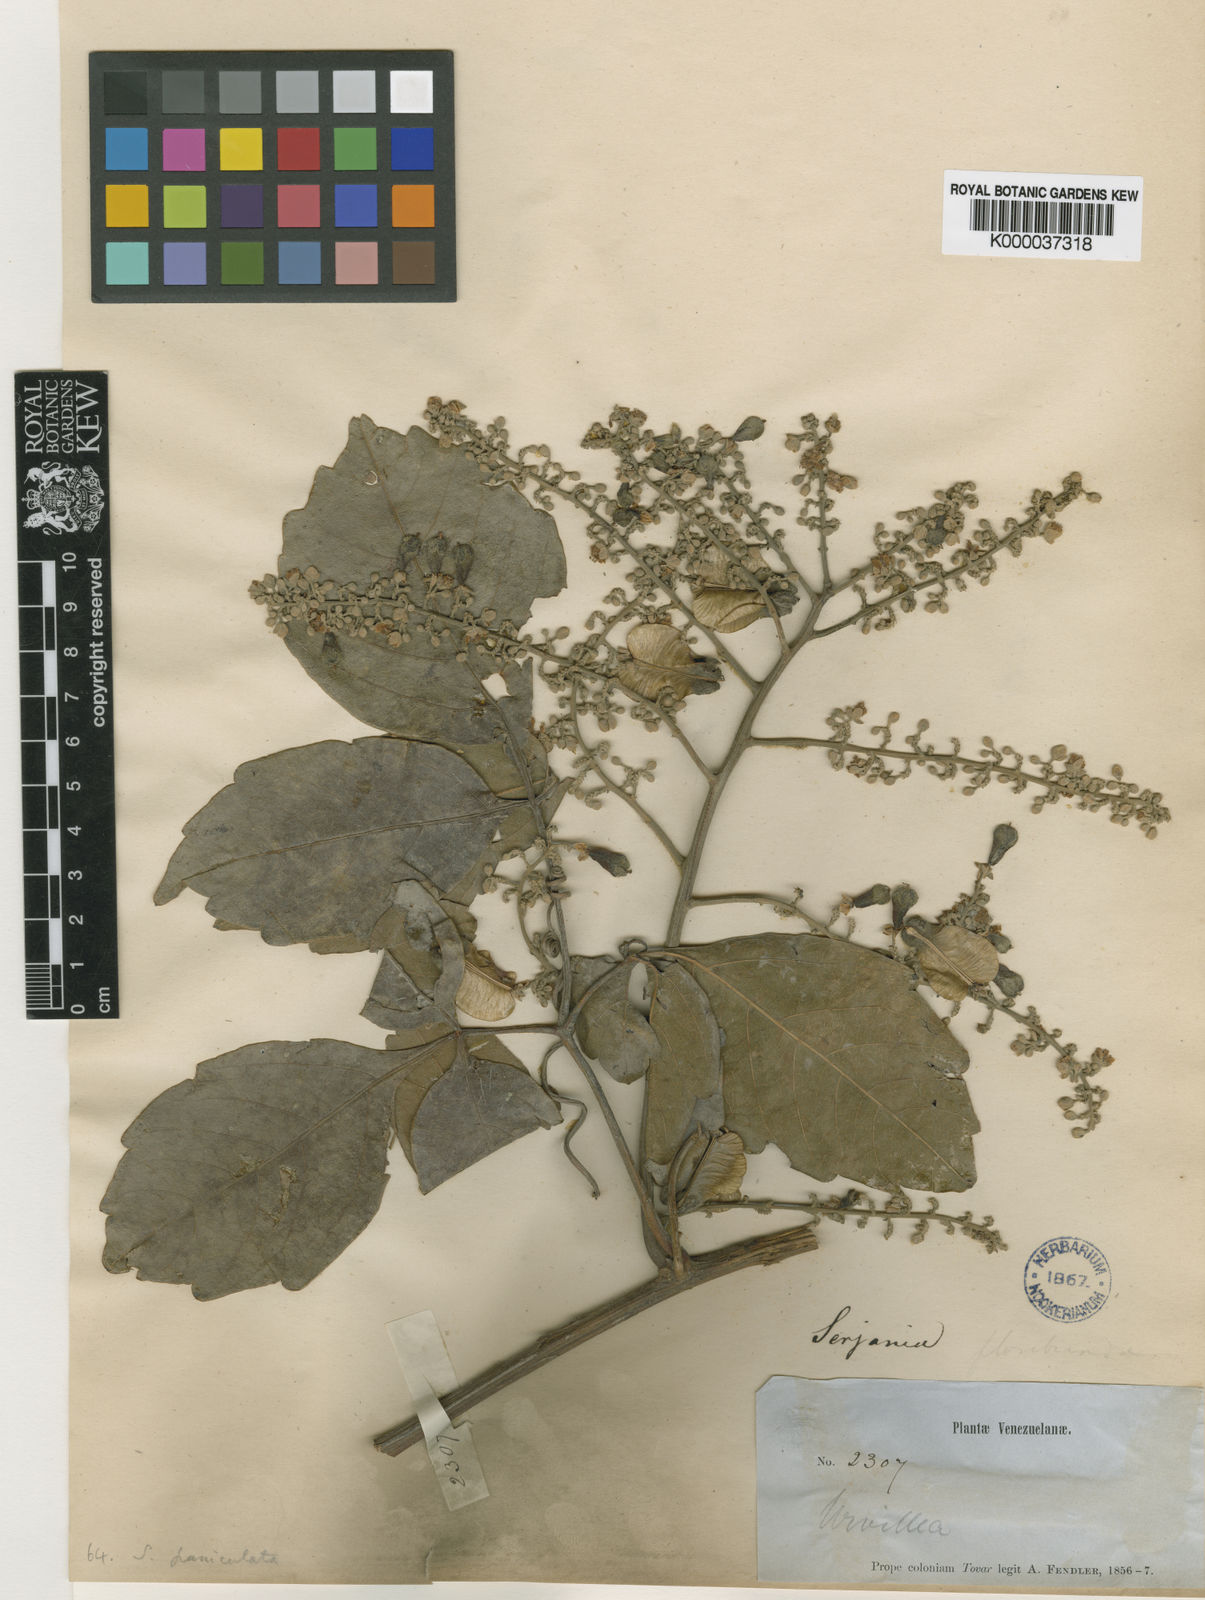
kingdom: Plantae
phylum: Tracheophyta
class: Magnoliopsida
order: Sapindales
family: Sapindaceae
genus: Serjania
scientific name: Serjania
